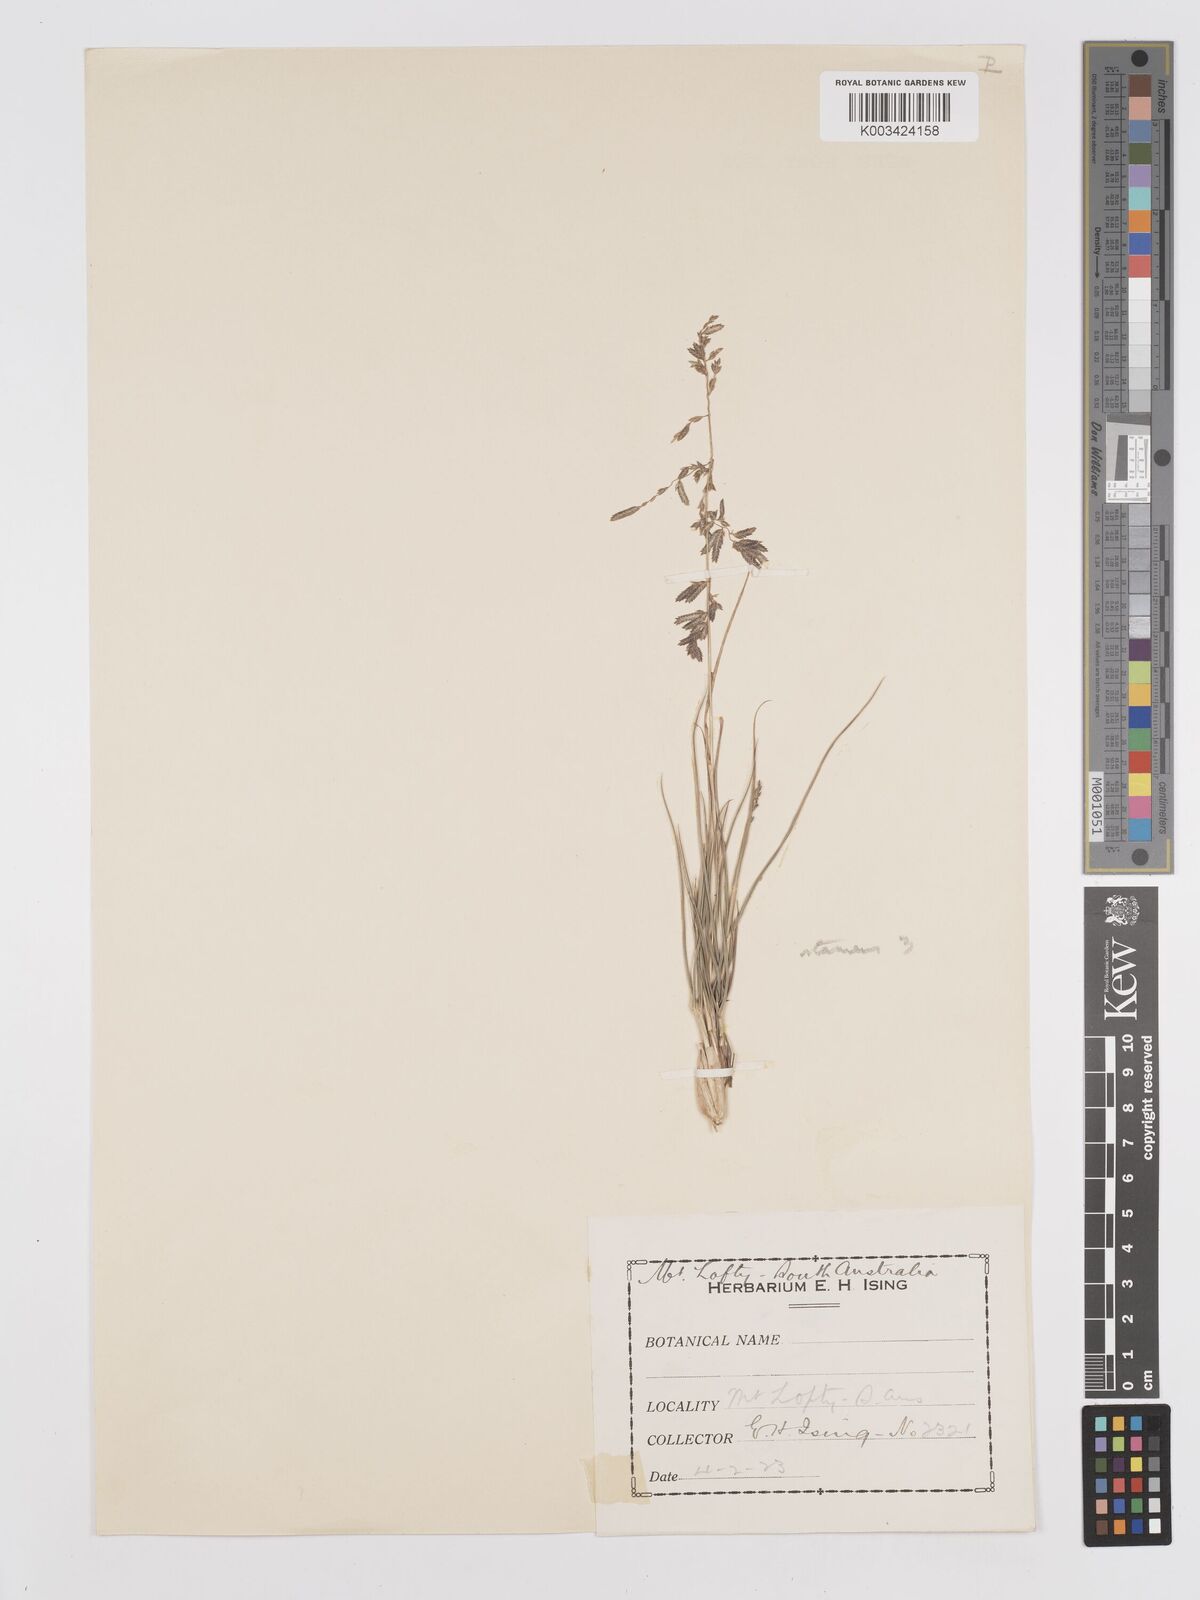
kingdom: Plantae
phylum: Tracheophyta
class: Liliopsida
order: Poales
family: Poaceae
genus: Eragrostis
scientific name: Eragrostis brownii
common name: Lovegrass
